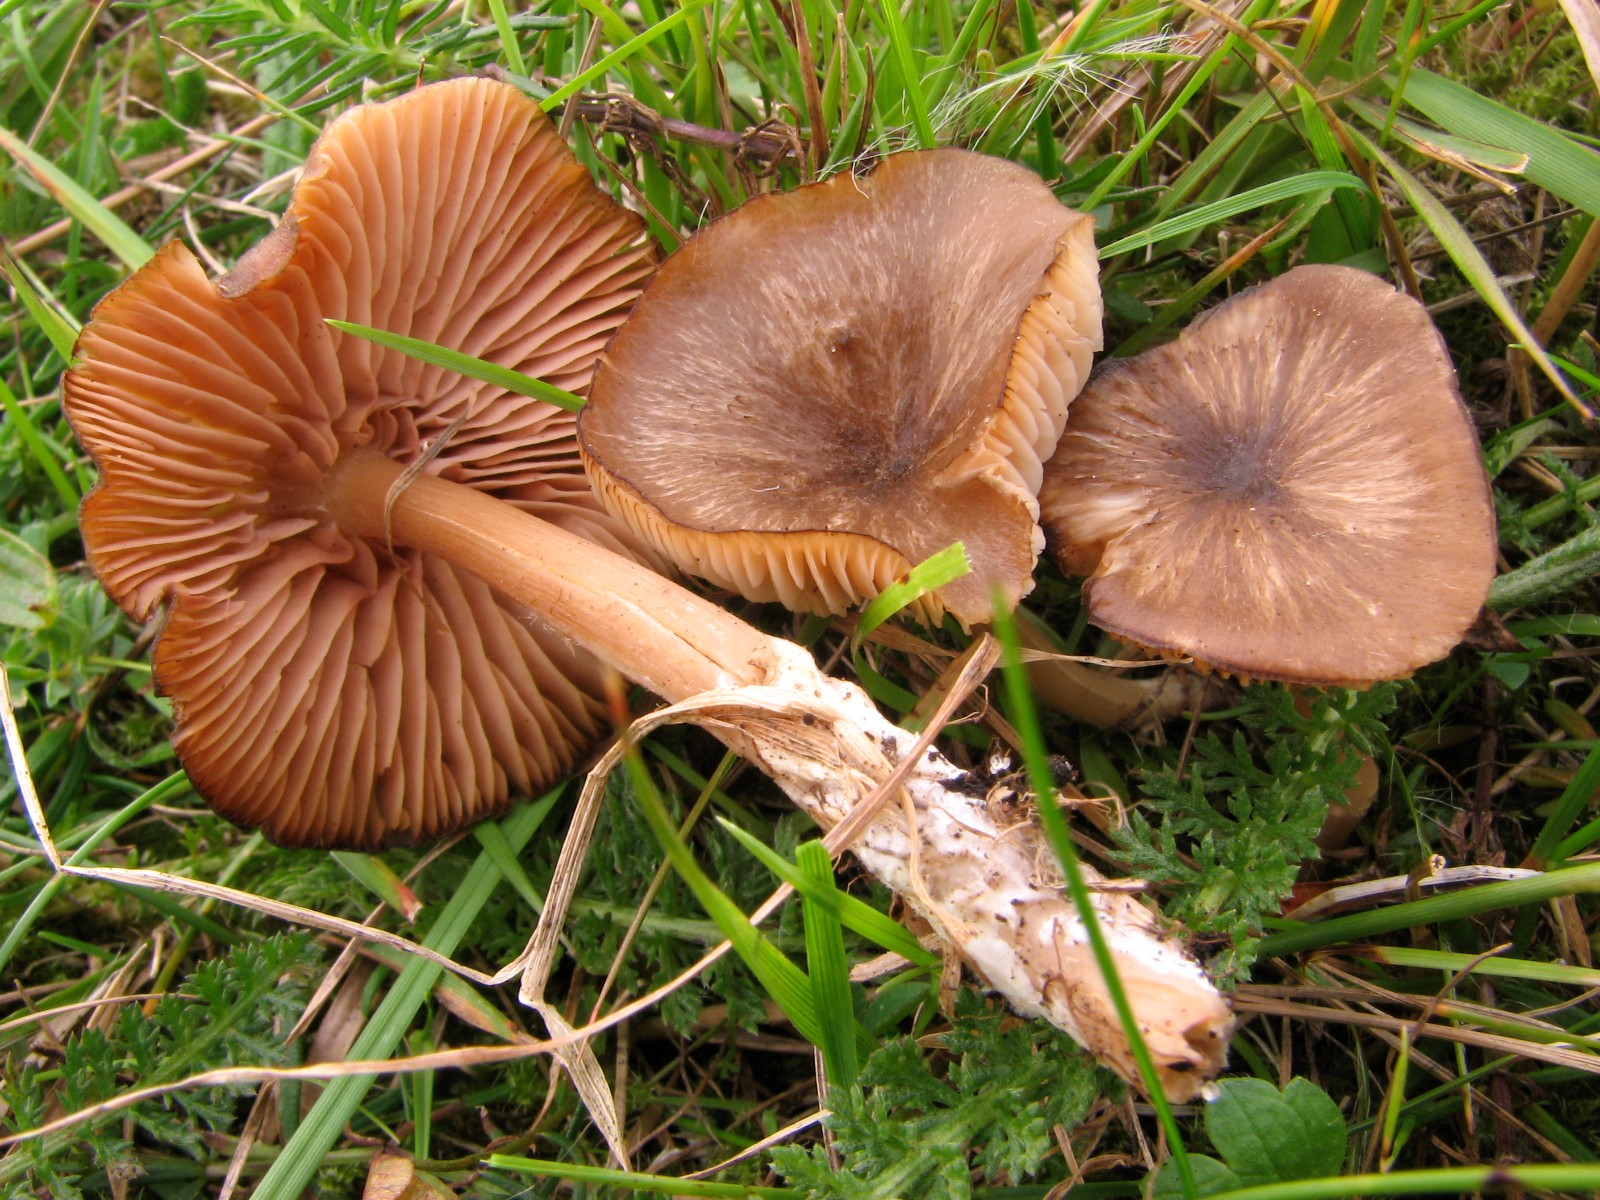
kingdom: Fungi
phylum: Basidiomycota
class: Agaricomycetes
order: Agaricales
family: Entolomataceae
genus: Entoloma
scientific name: Entoloma
